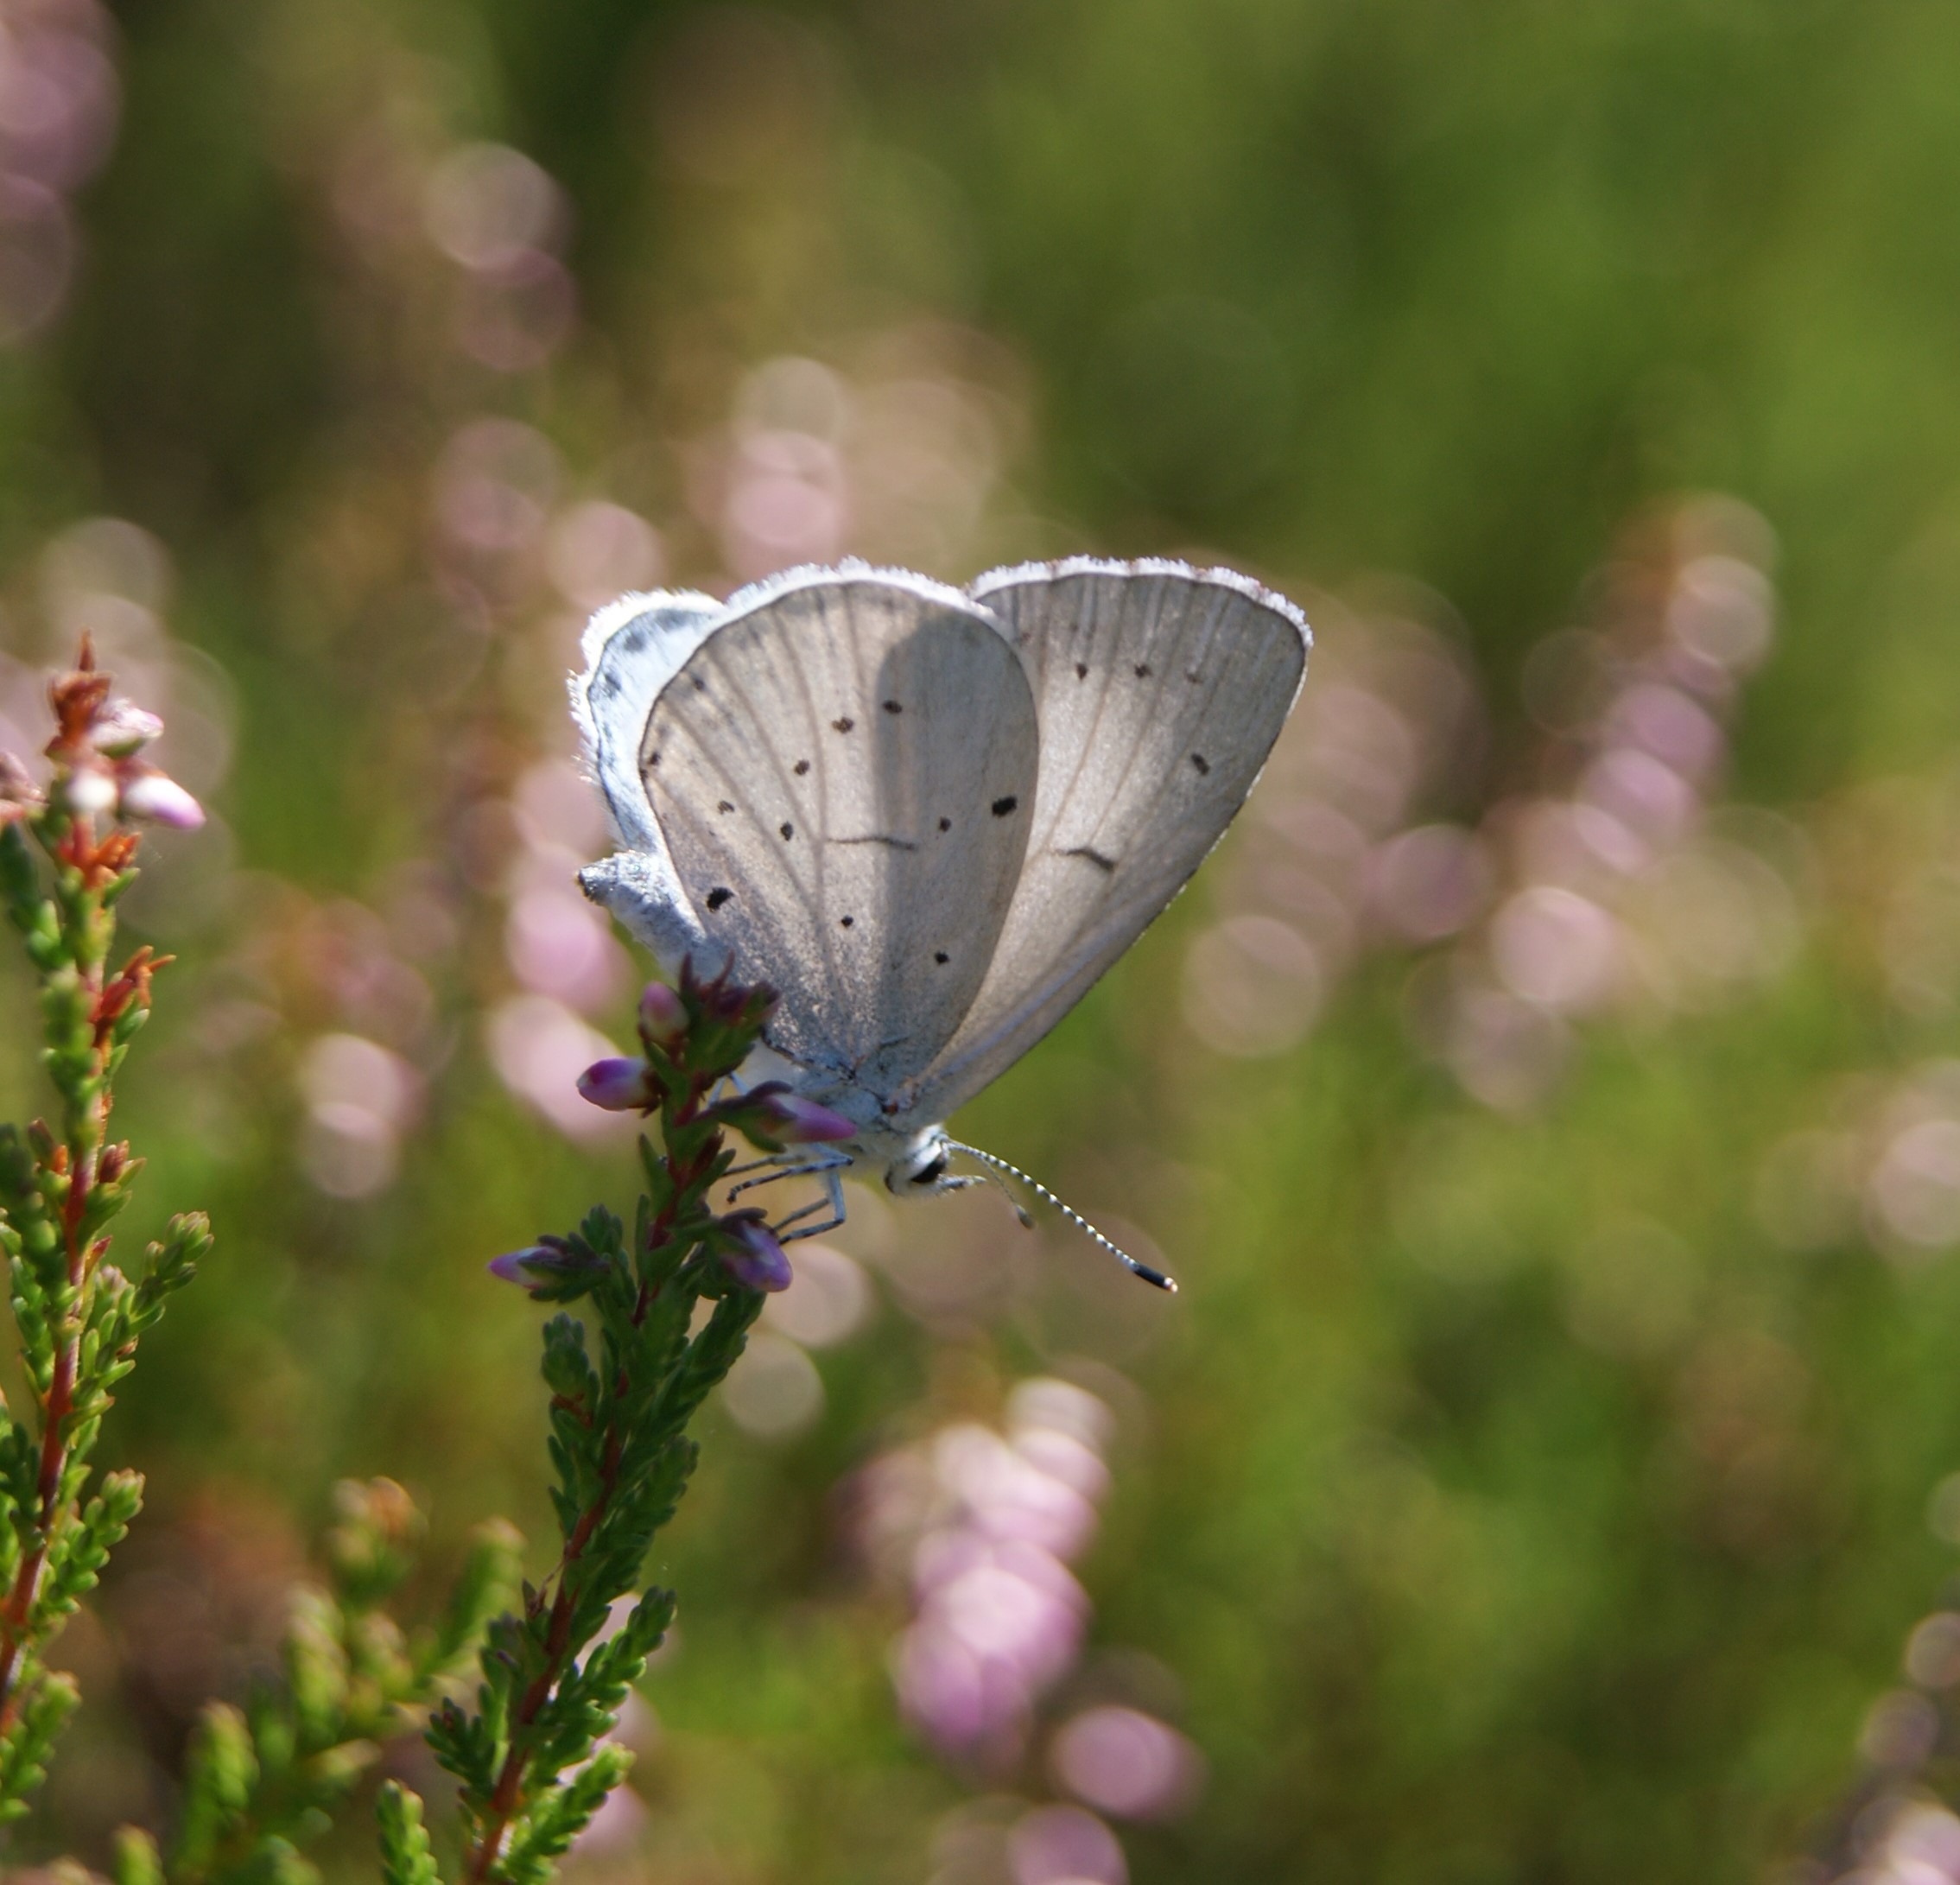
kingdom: Animalia
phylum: Arthropoda
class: Insecta
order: Lepidoptera
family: Lycaenidae
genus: Celastrina
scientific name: Celastrina argiolus
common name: Skovblåfugl
